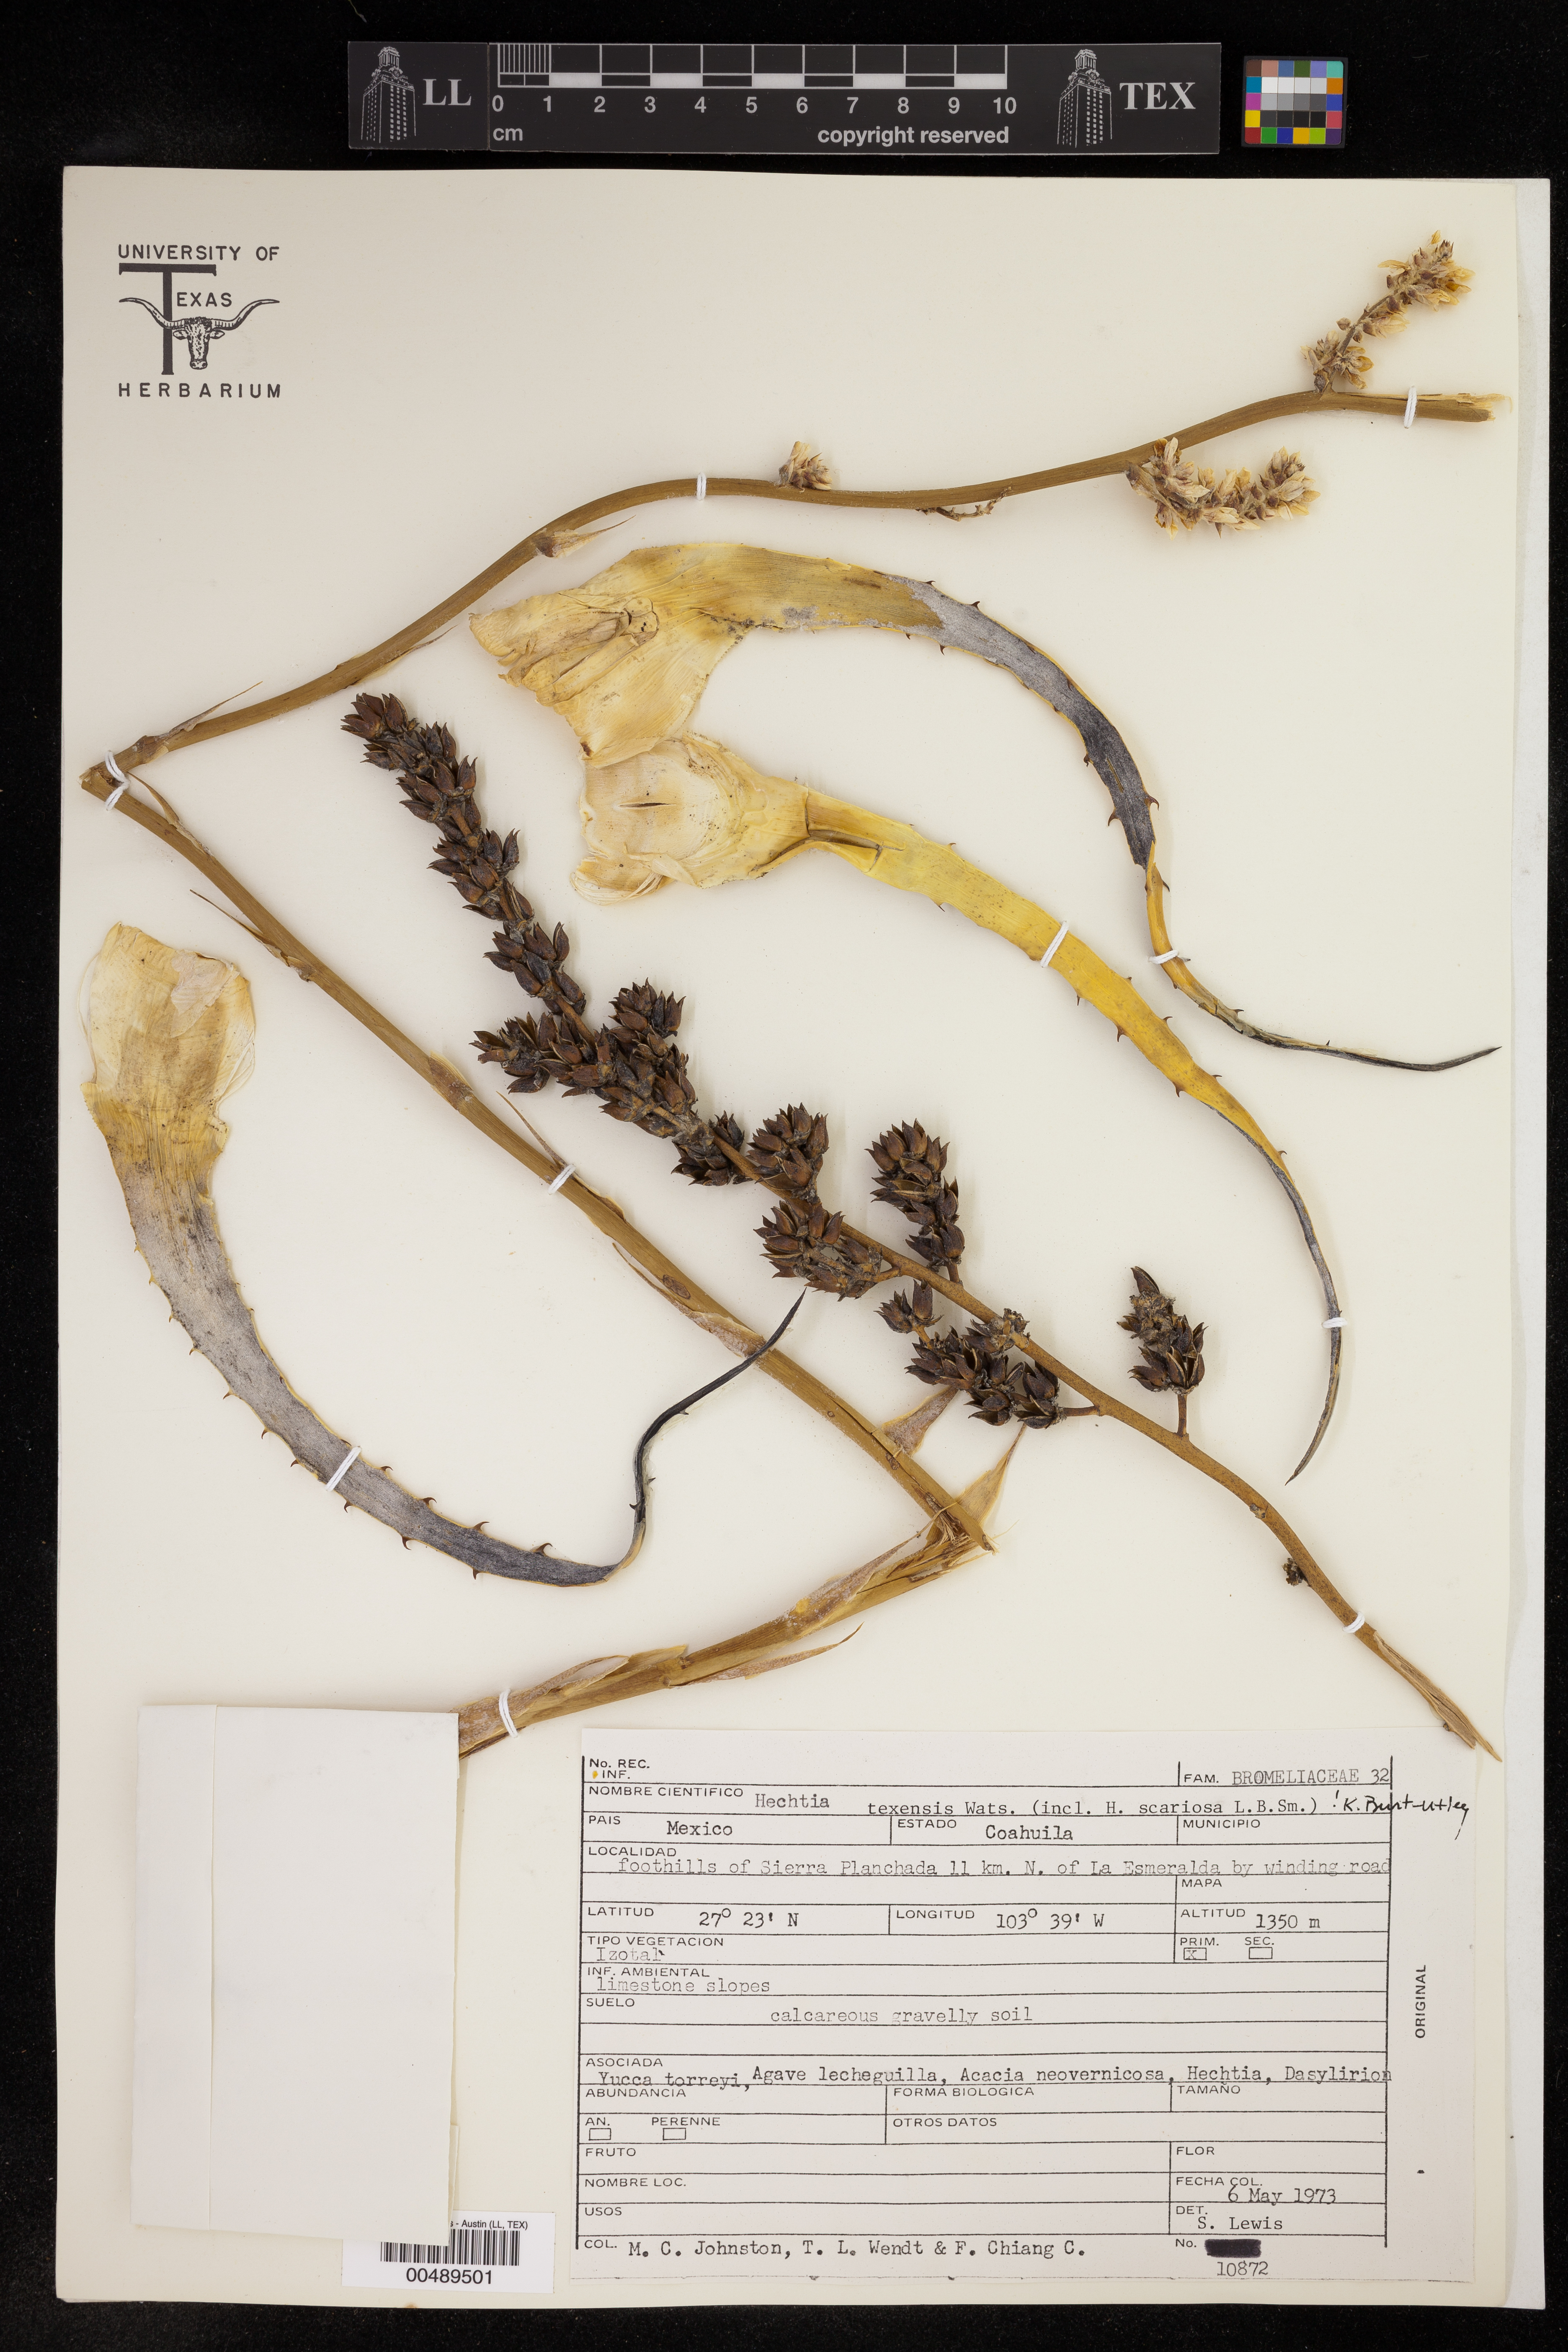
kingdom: Plantae
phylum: Tracheophyta
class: Liliopsida
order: Poales
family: Bromeliaceae
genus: Hechtia
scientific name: Hechtia texensis
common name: False agave
